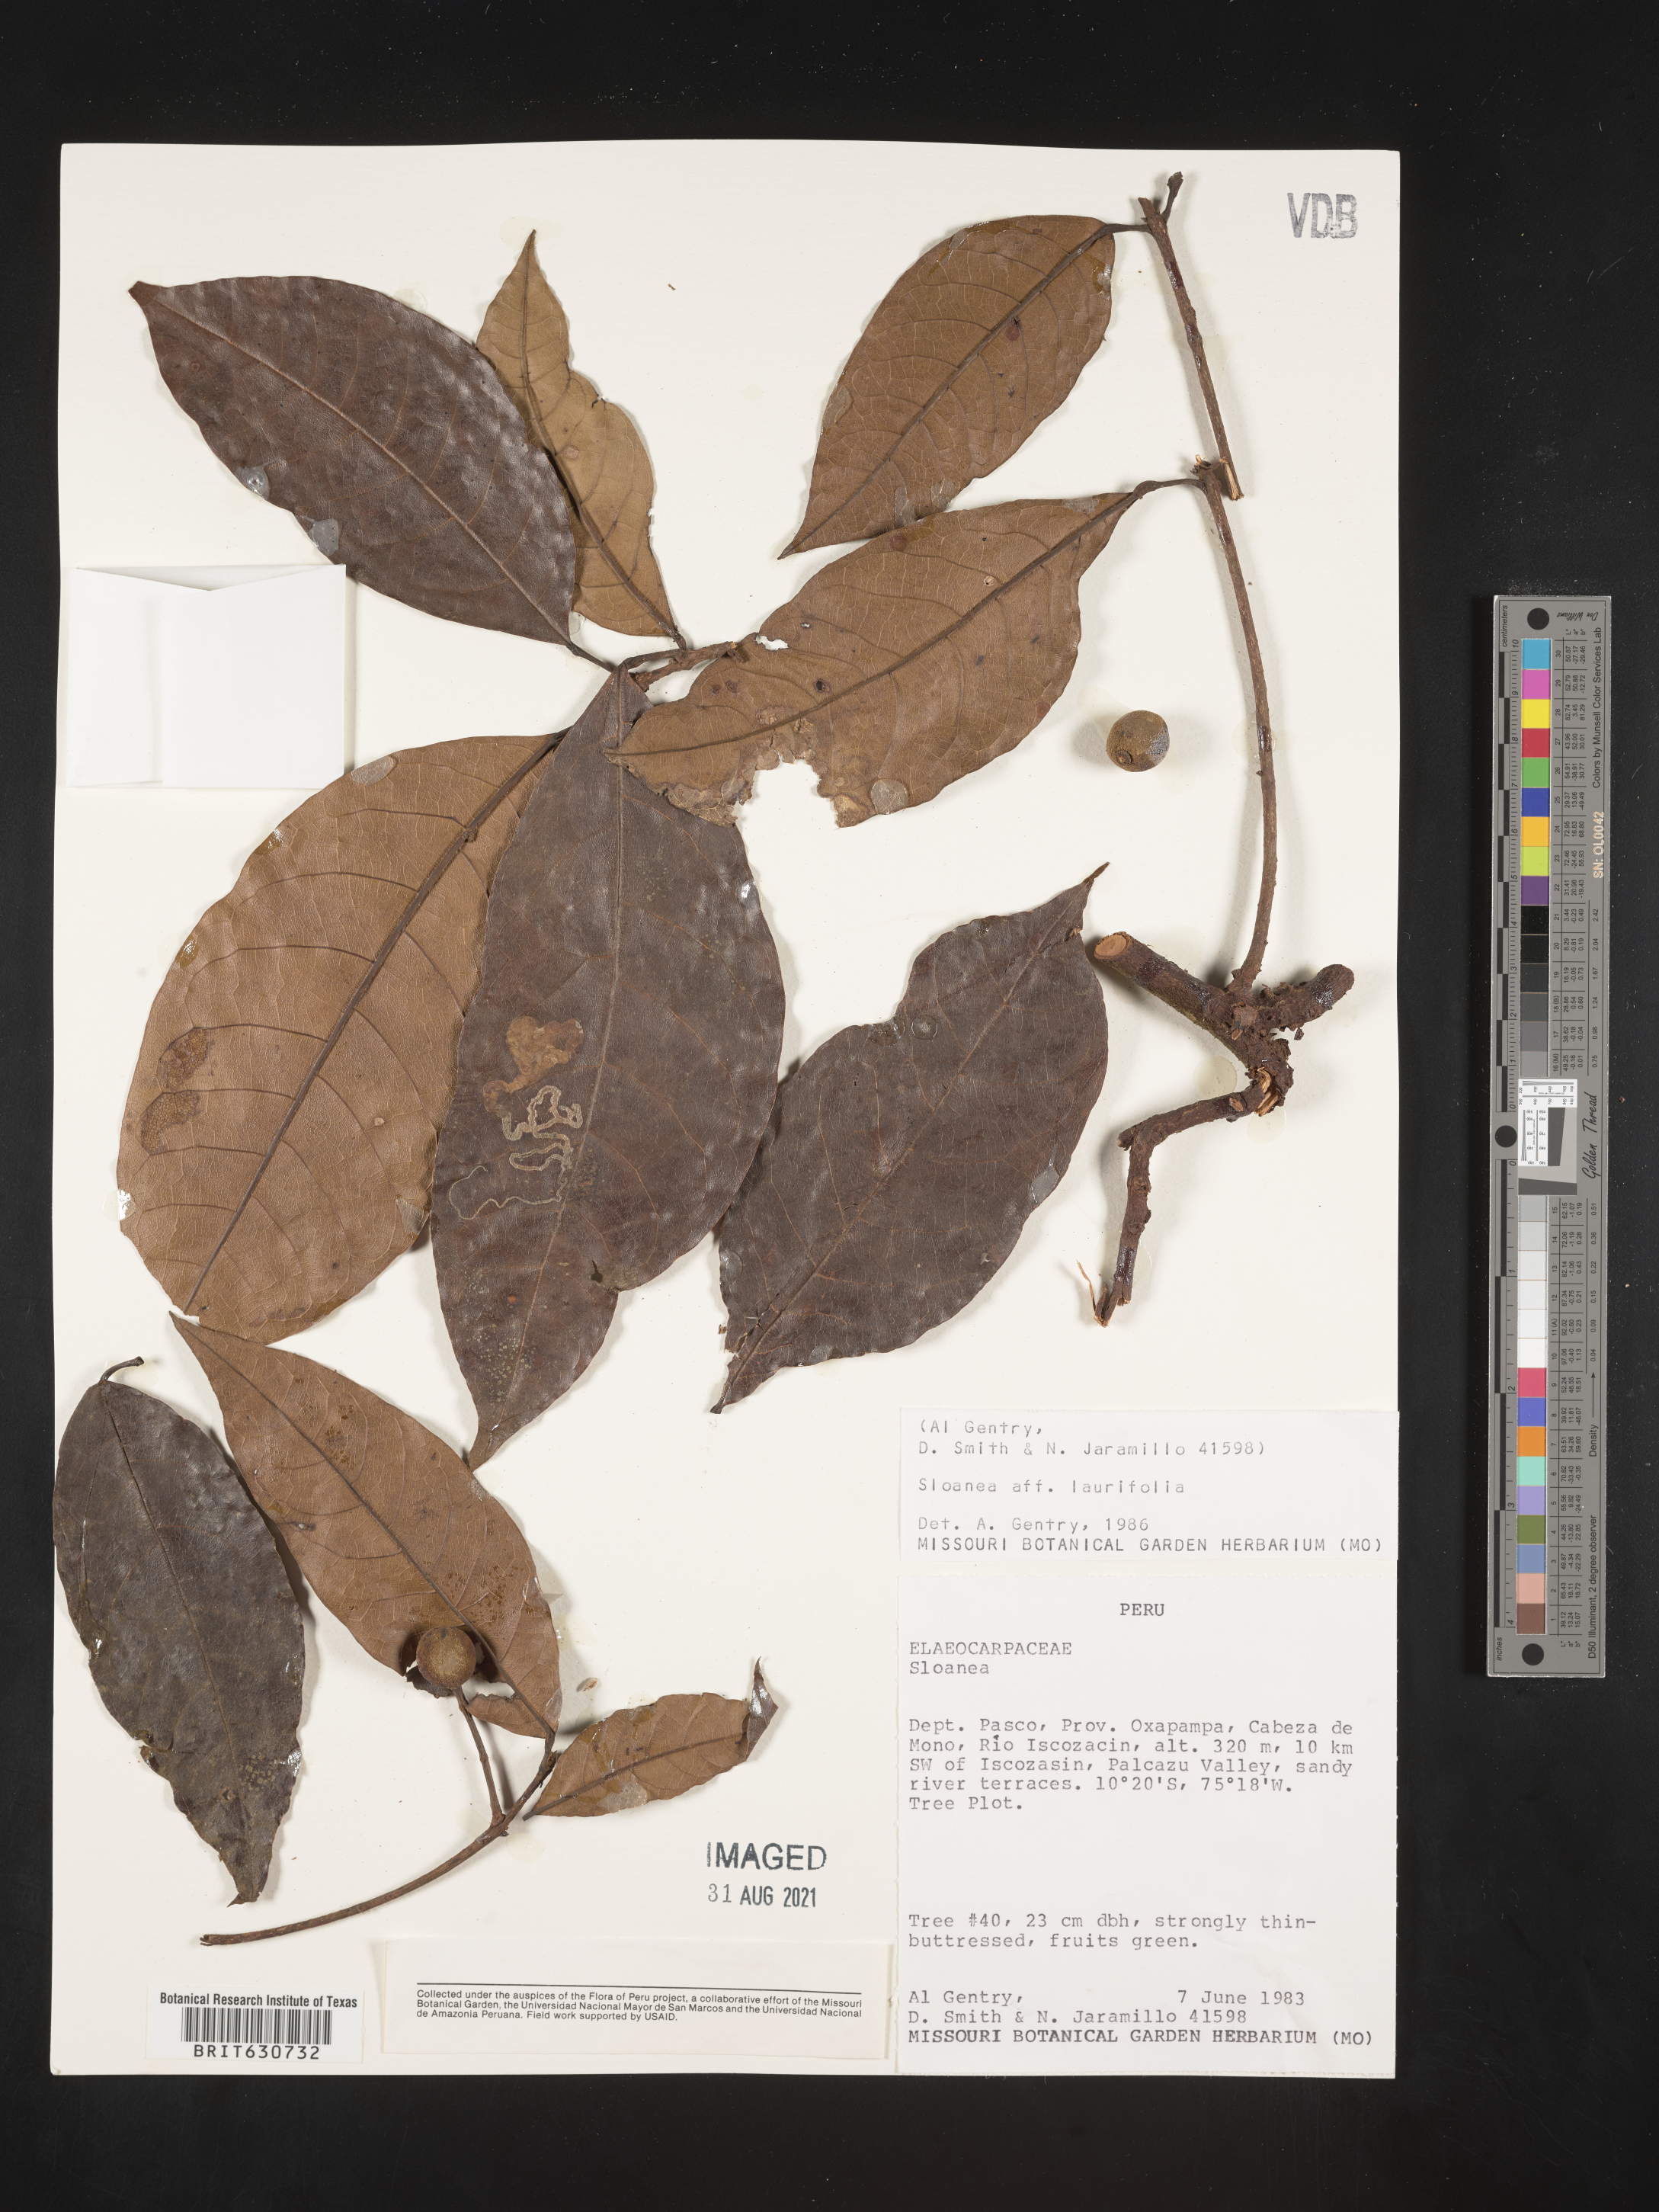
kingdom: Plantae
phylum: Tracheophyta
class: Magnoliopsida
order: Oxalidales
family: Elaeocarpaceae
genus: Sloanea
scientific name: Sloanea
